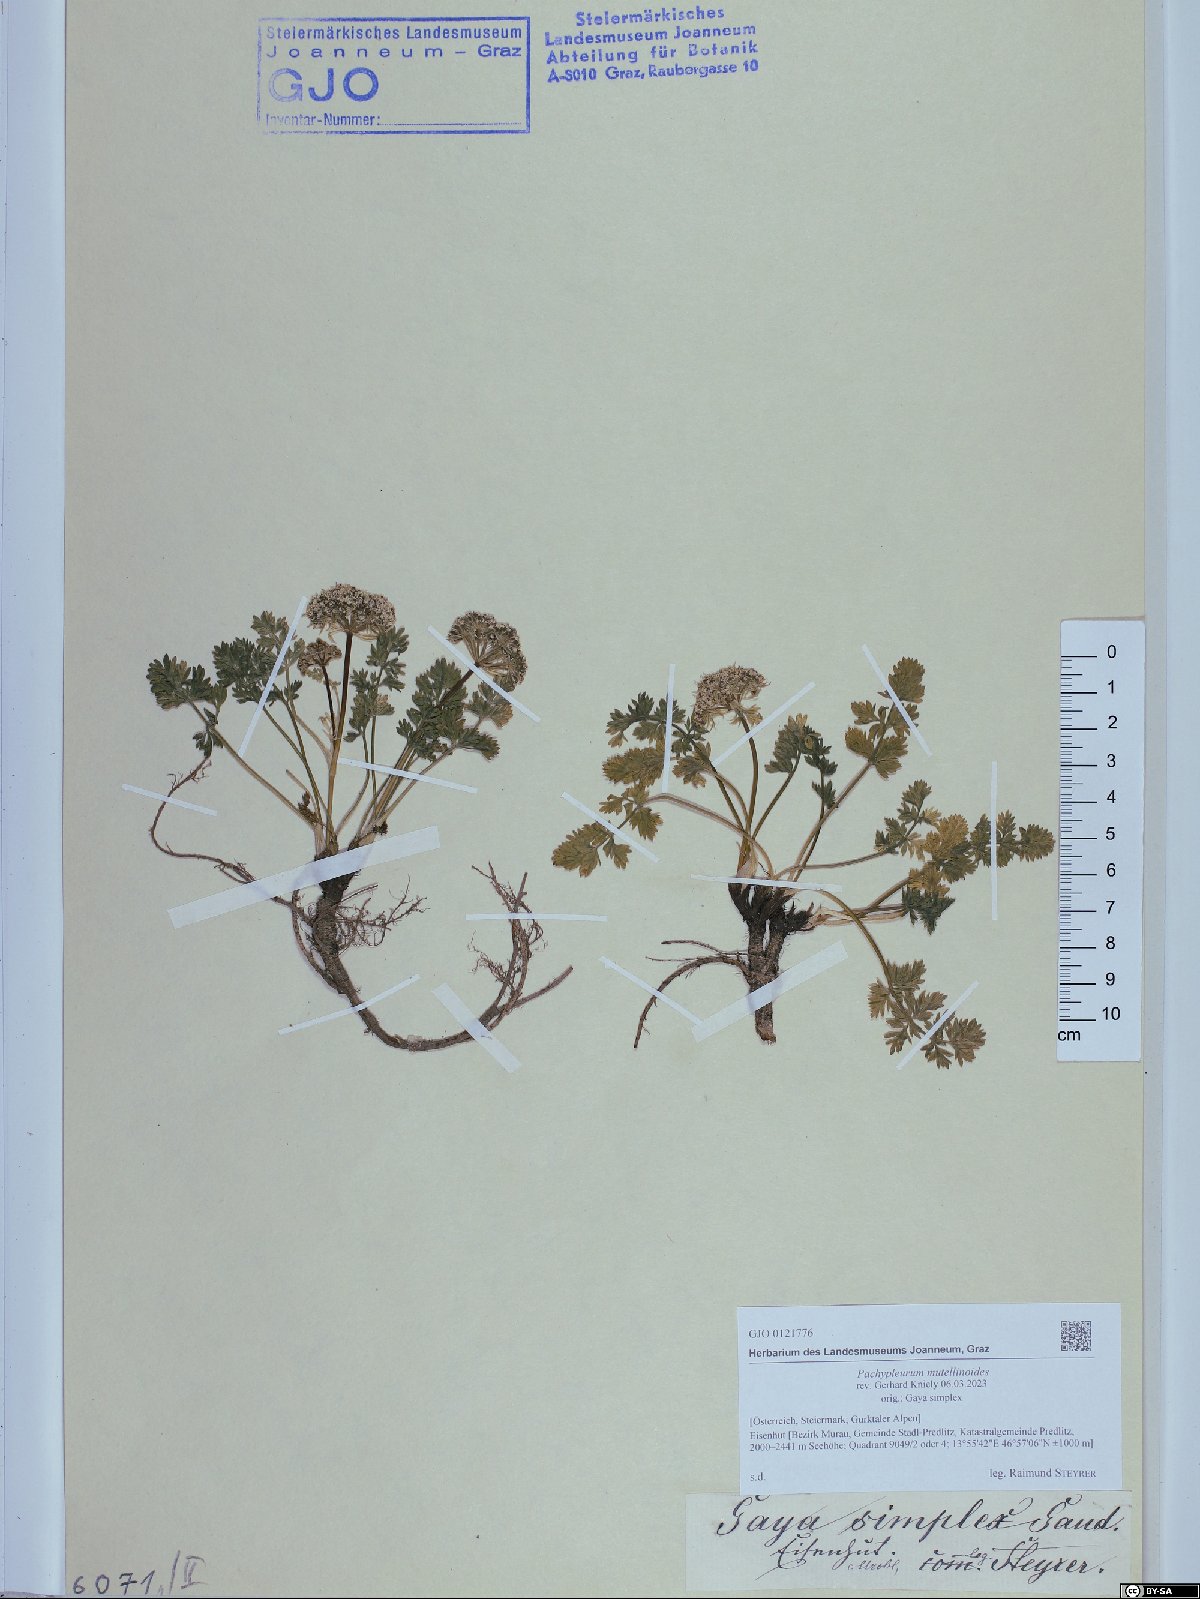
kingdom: Plantae
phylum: Tracheophyta
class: Magnoliopsida
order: Apiales
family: Apiaceae
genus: Pachypleurum
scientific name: Pachypleurum mutellinoides
